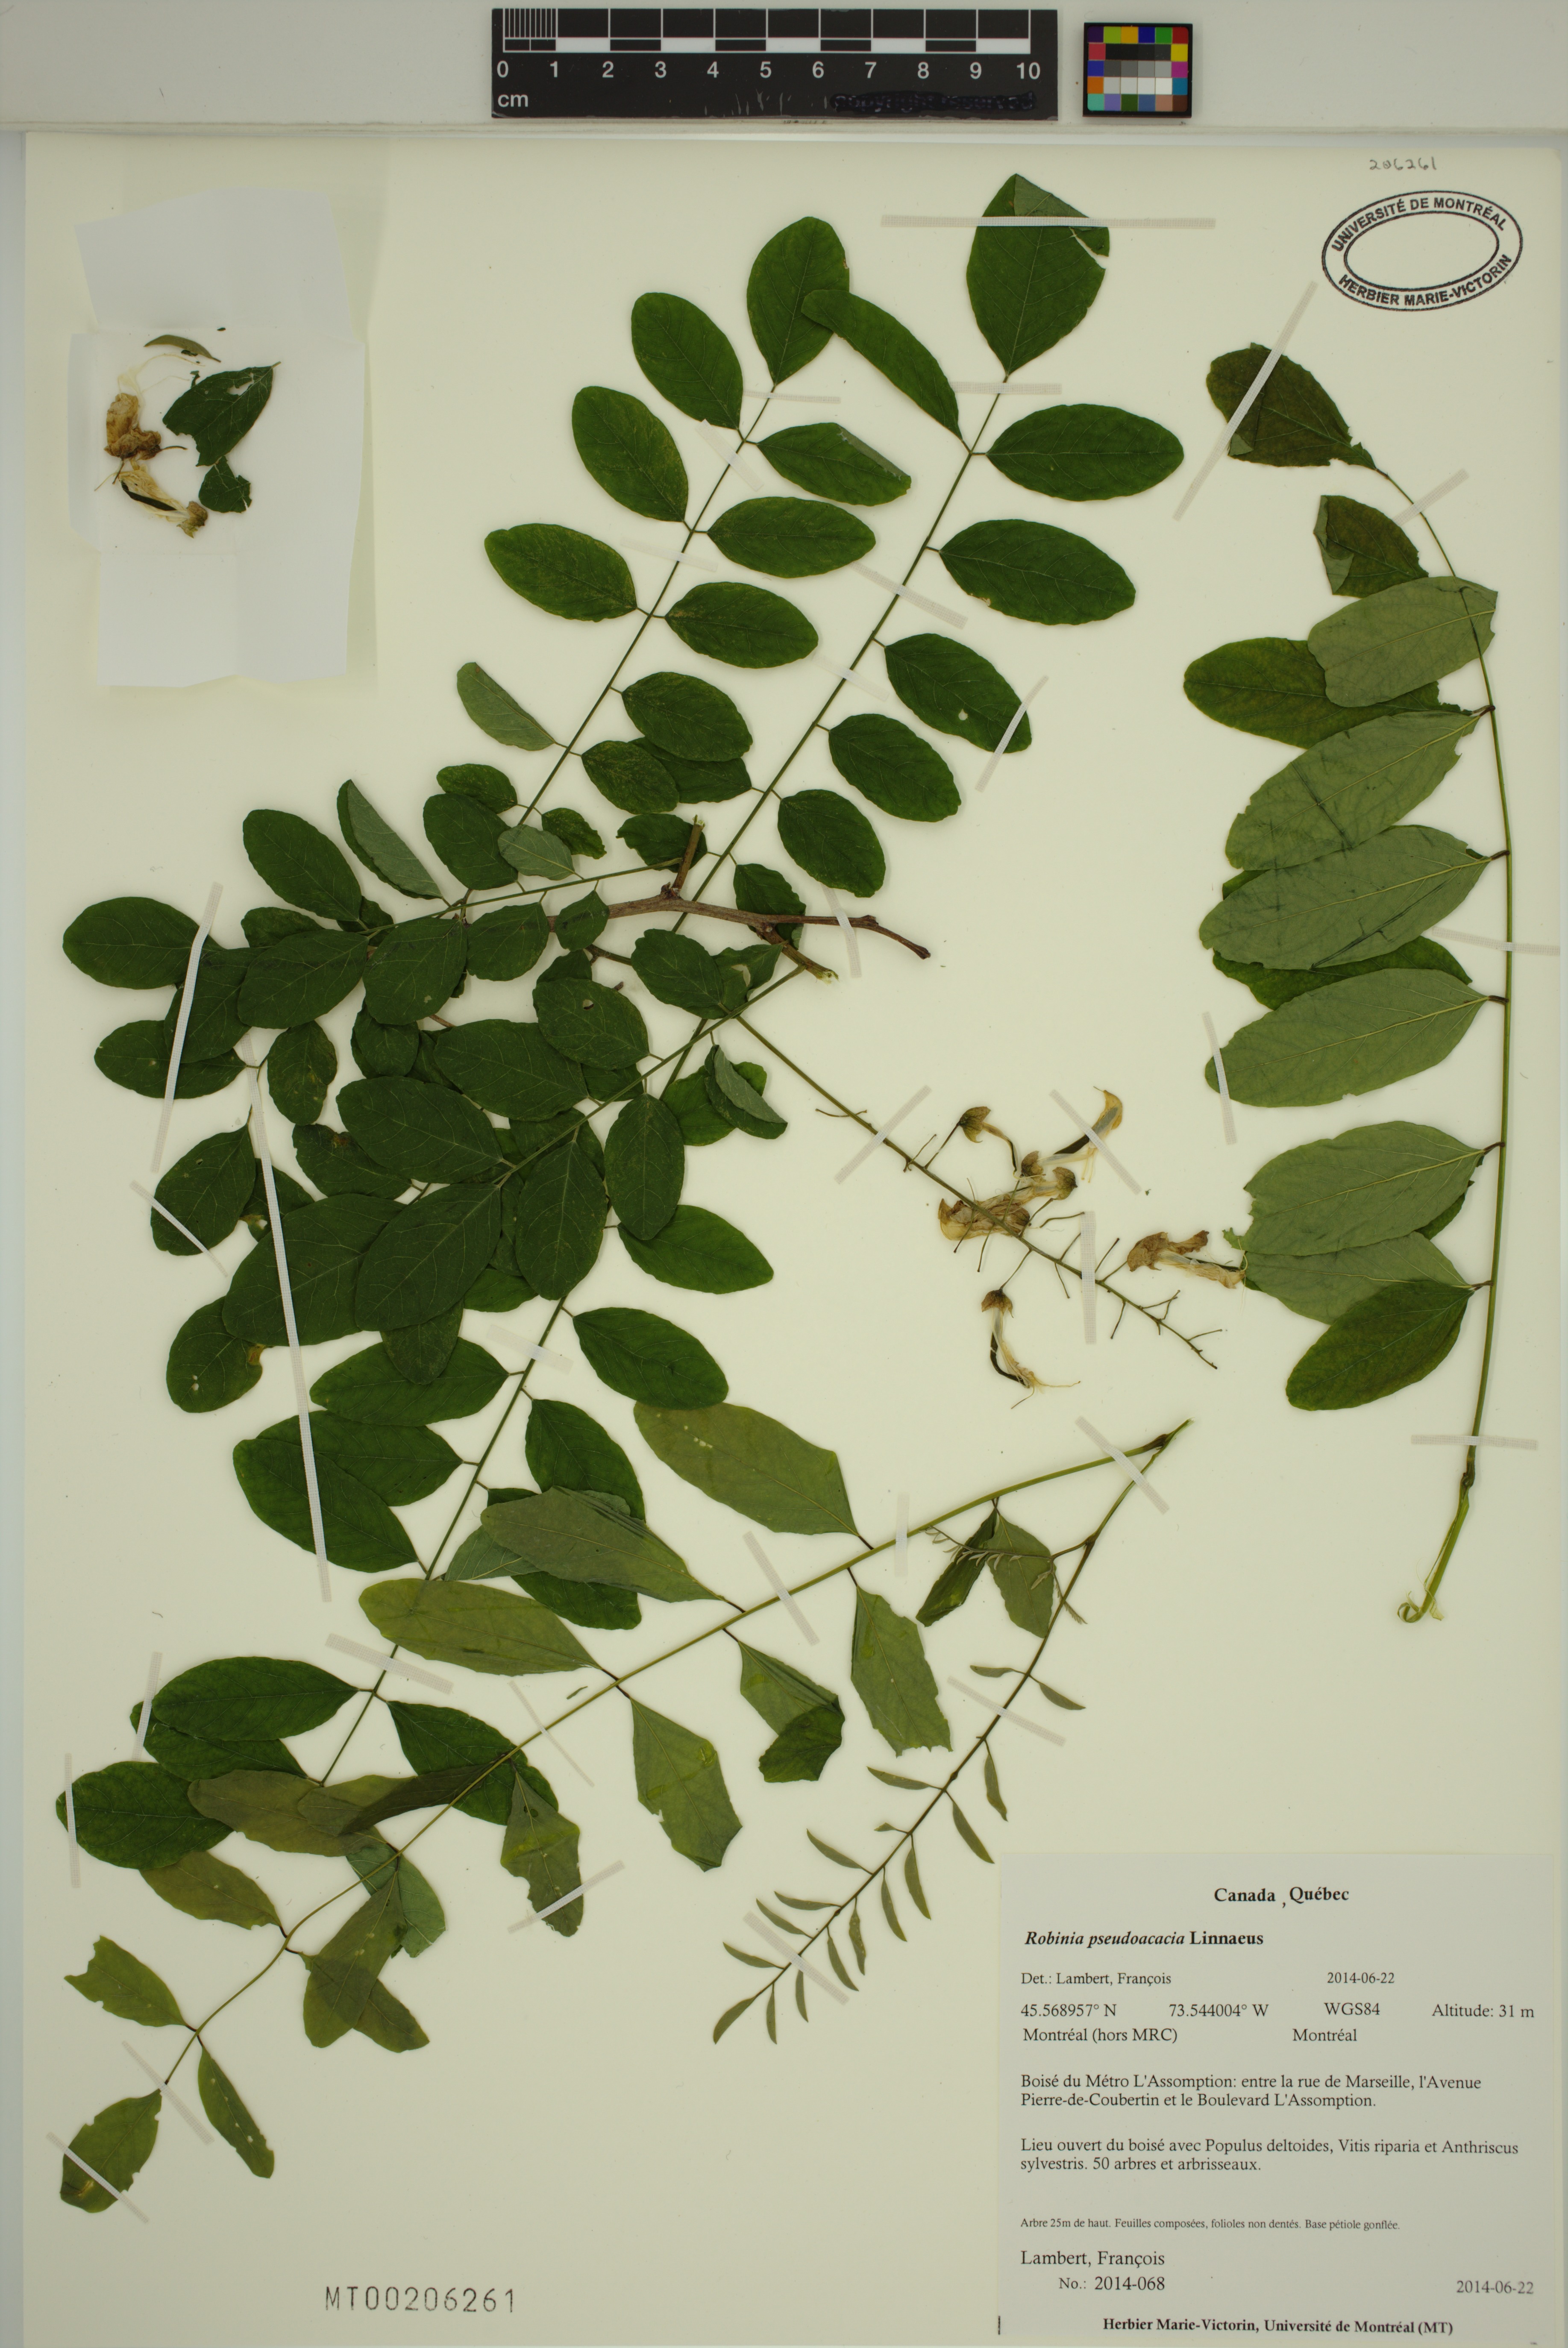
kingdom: Plantae
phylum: Tracheophyta
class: Magnoliopsida
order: Fabales
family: Fabaceae
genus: Robinia
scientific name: Robinia pseudoacacia
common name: Black locust
